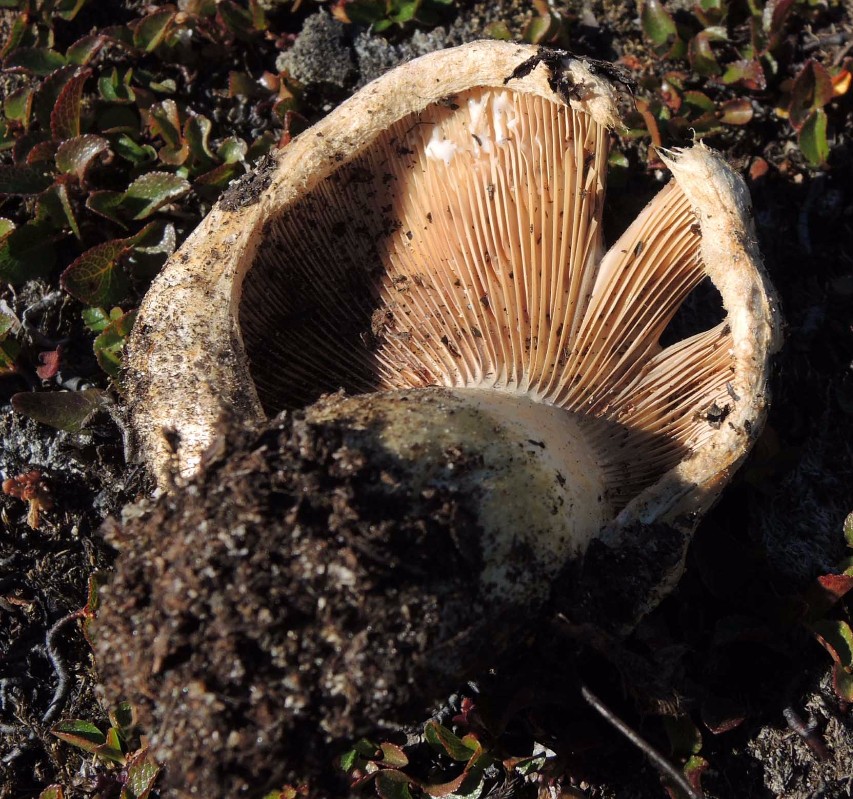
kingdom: Fungi
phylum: Basidiomycota
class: Agaricomycetes
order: Russulales
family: Russulaceae
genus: Lactarius
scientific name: Lactarius dryadophilus
